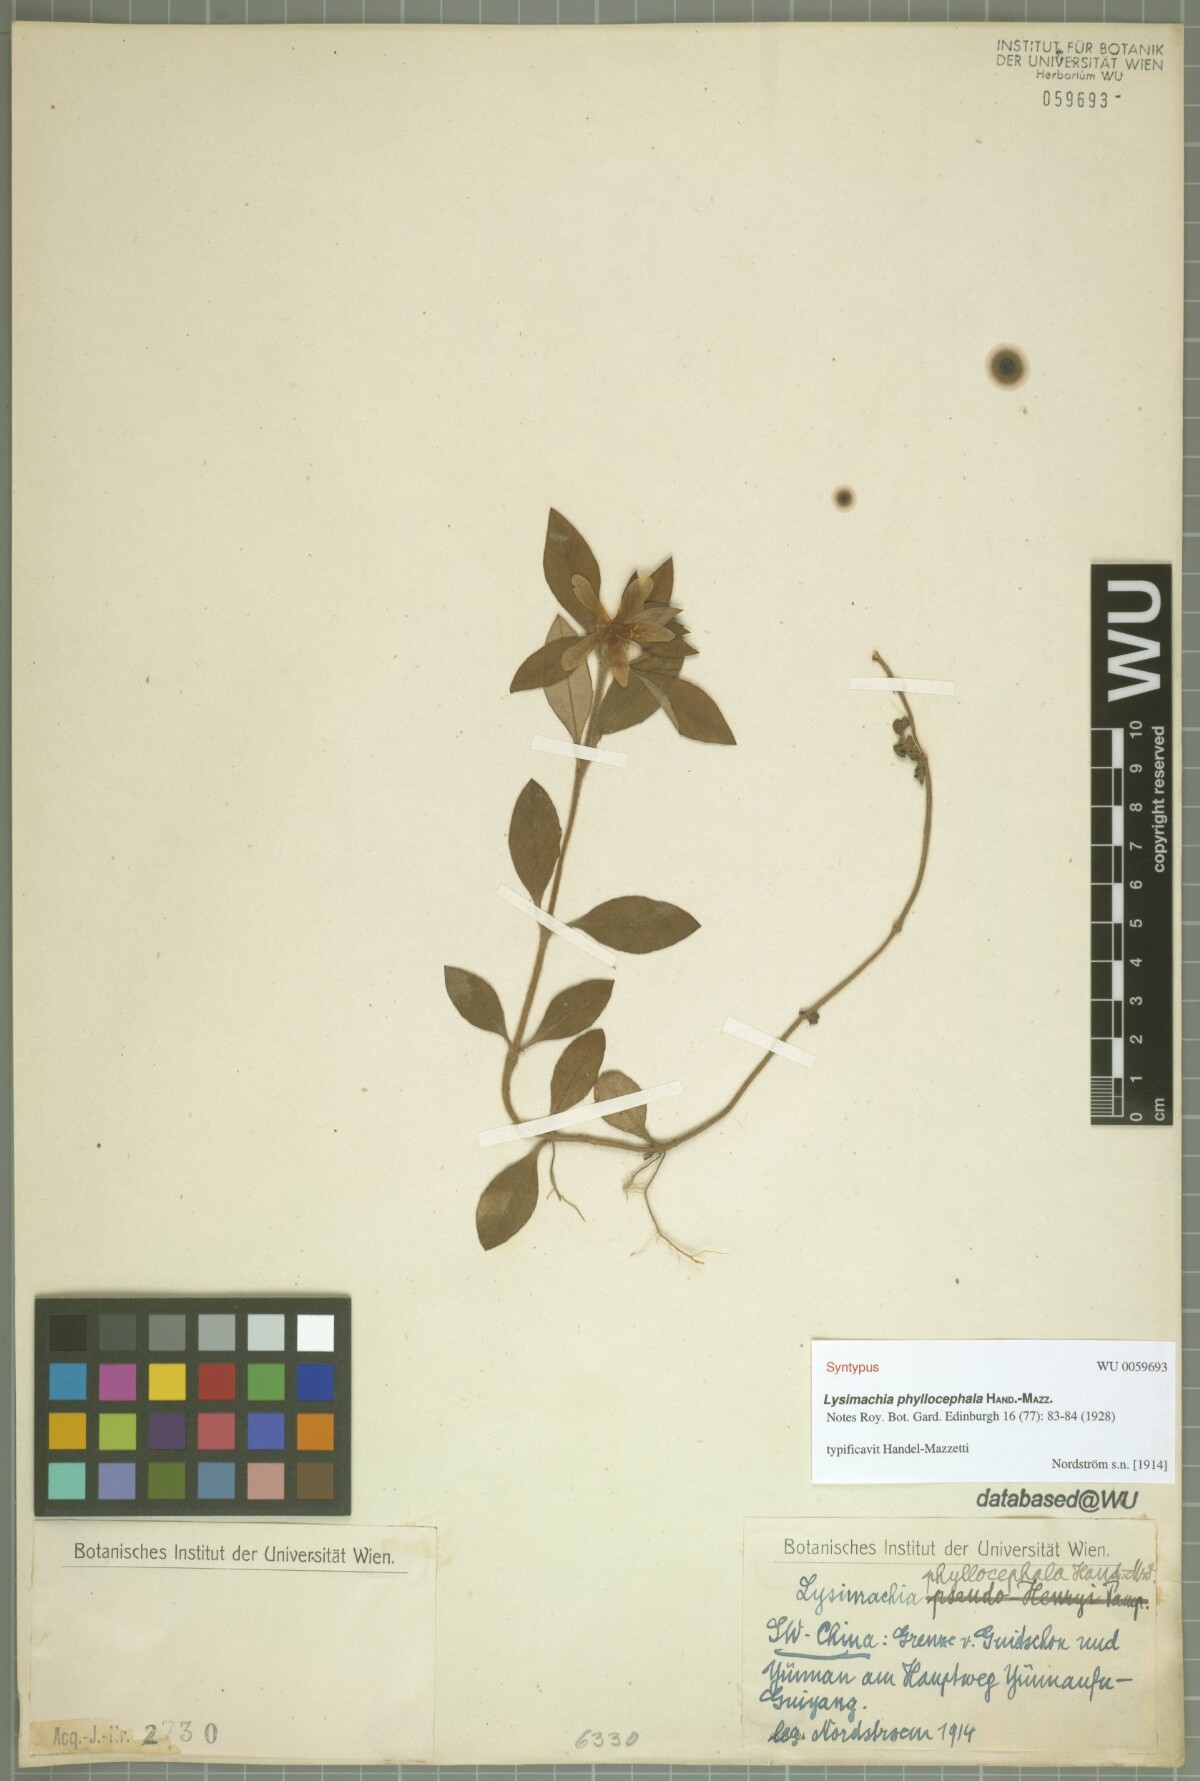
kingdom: Plantae
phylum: Tracheophyta
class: Magnoliopsida
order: Ericales
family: Primulaceae
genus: Lysimachia
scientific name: Lysimachia phyllocephala
